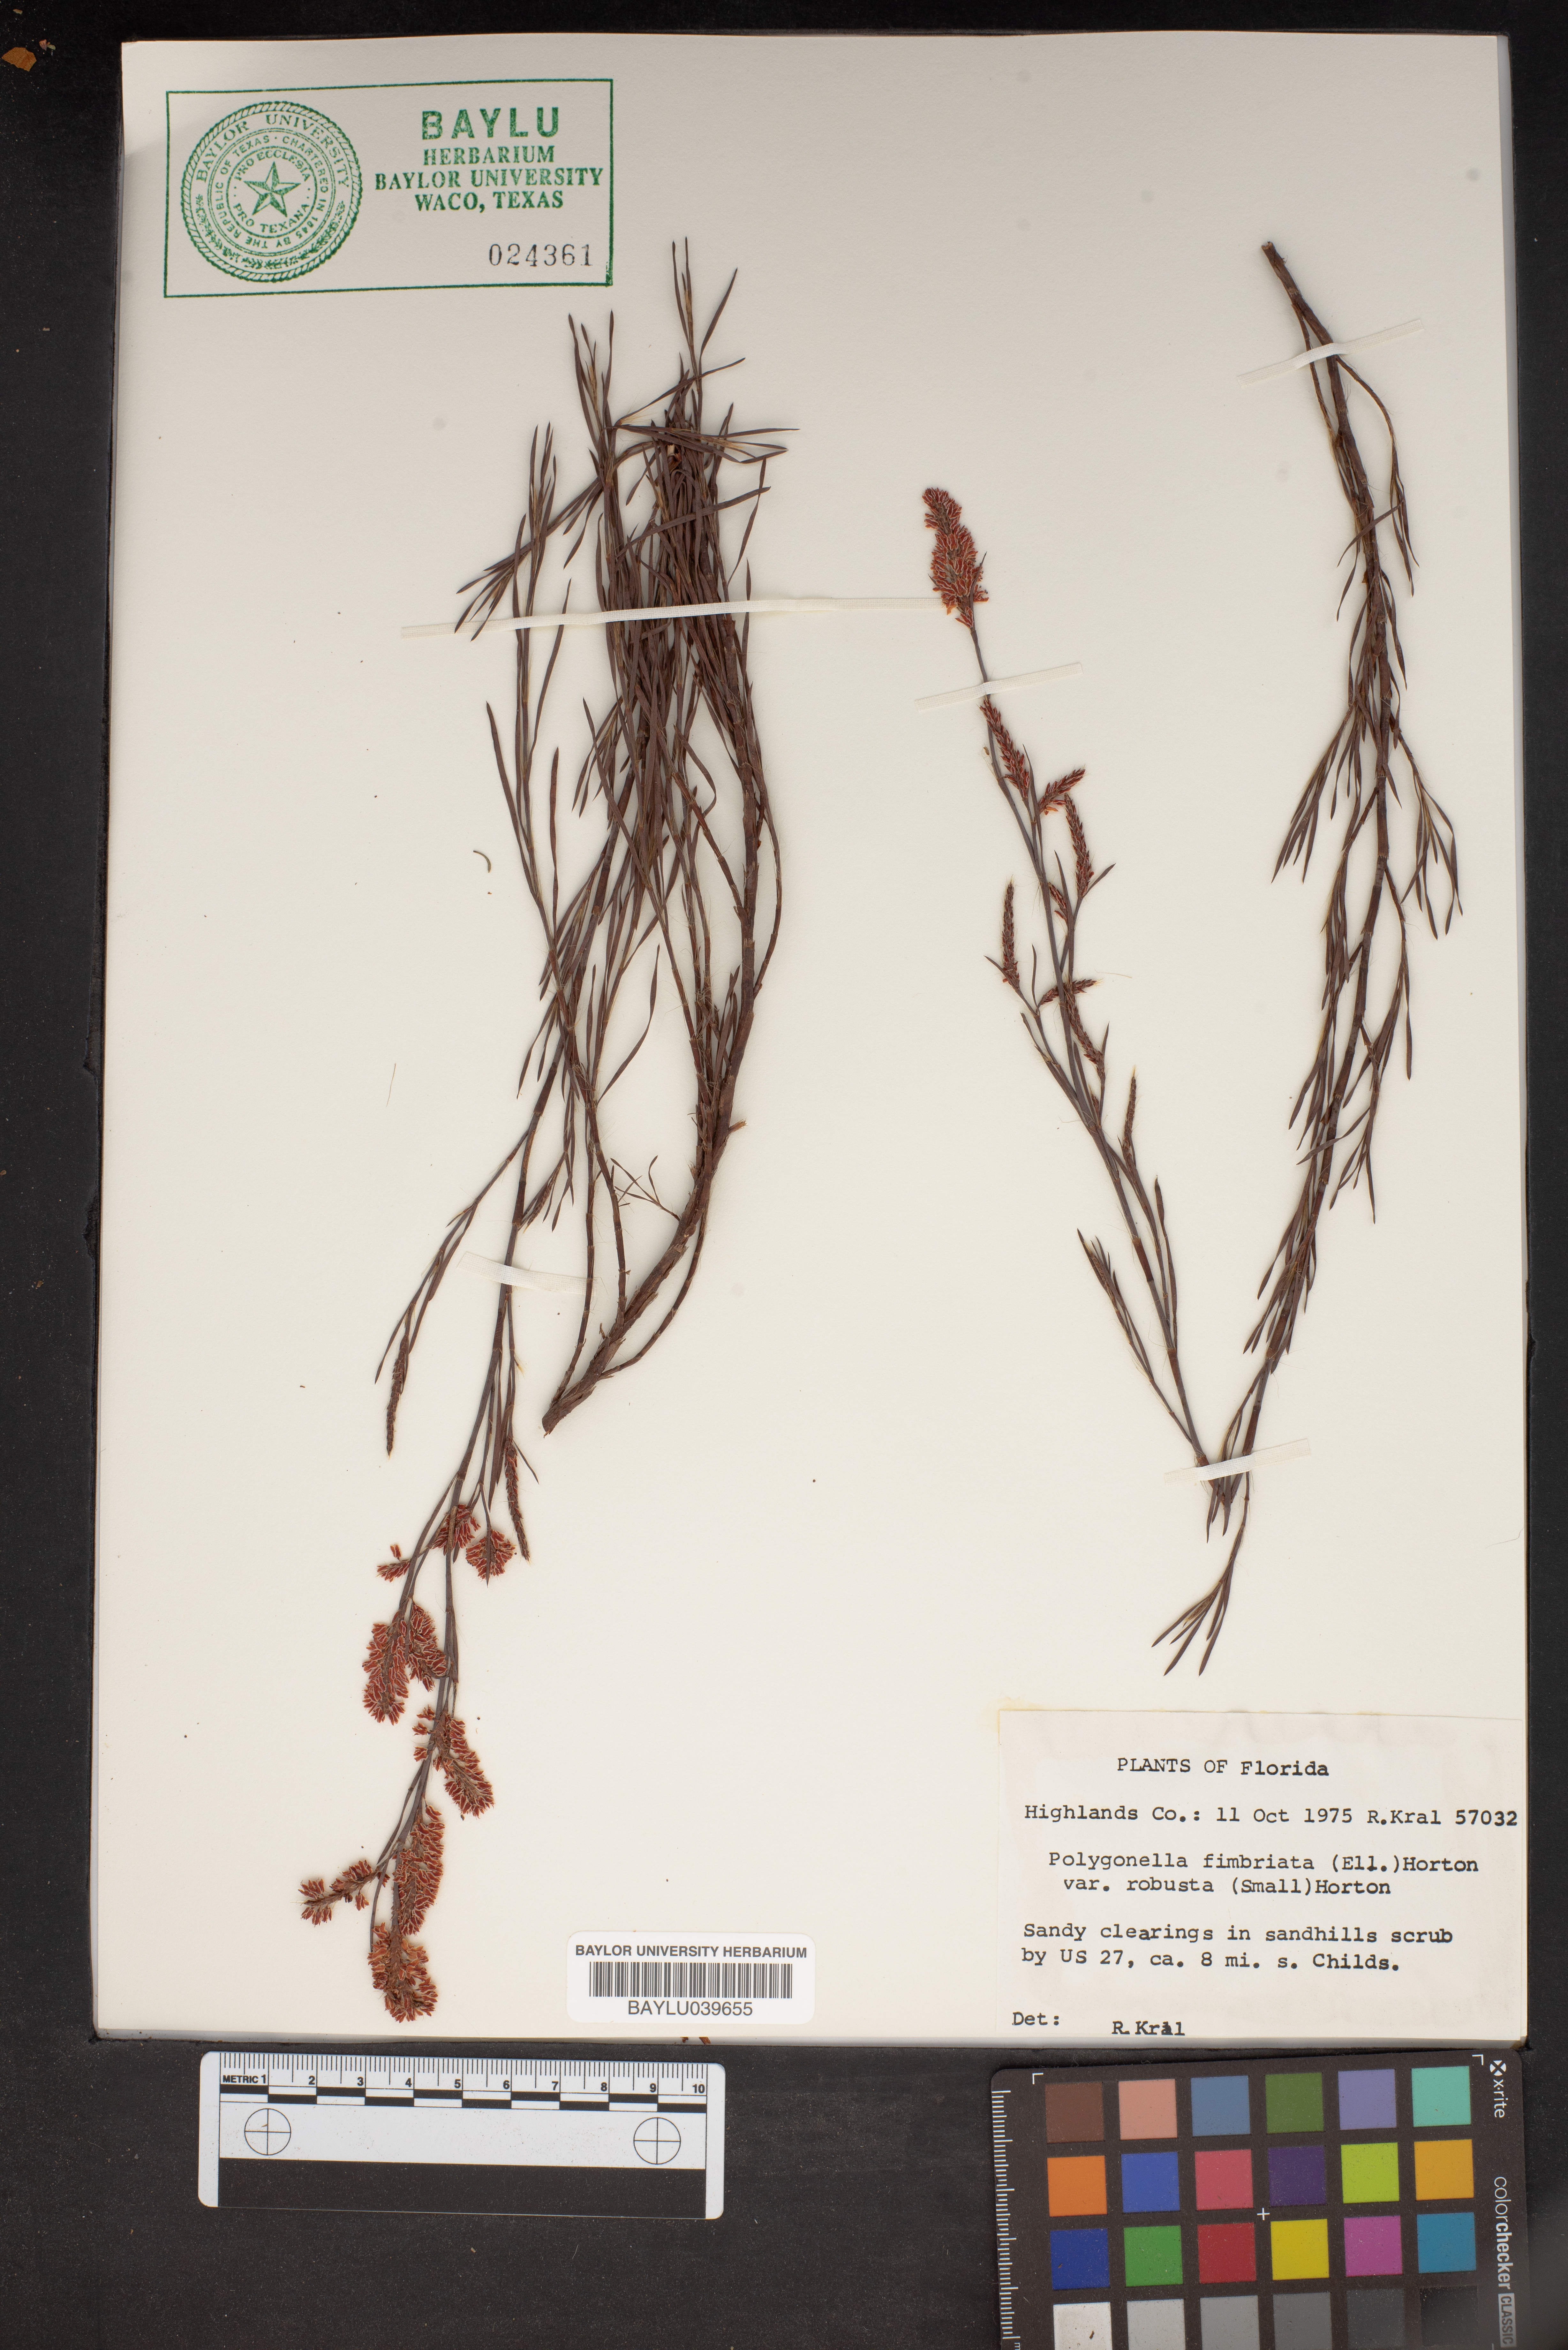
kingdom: Plantae
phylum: Tracheophyta
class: Magnoliopsida
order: Caryophyllales
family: Polygonaceae
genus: Polygonella
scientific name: Polygonella fimbriata
